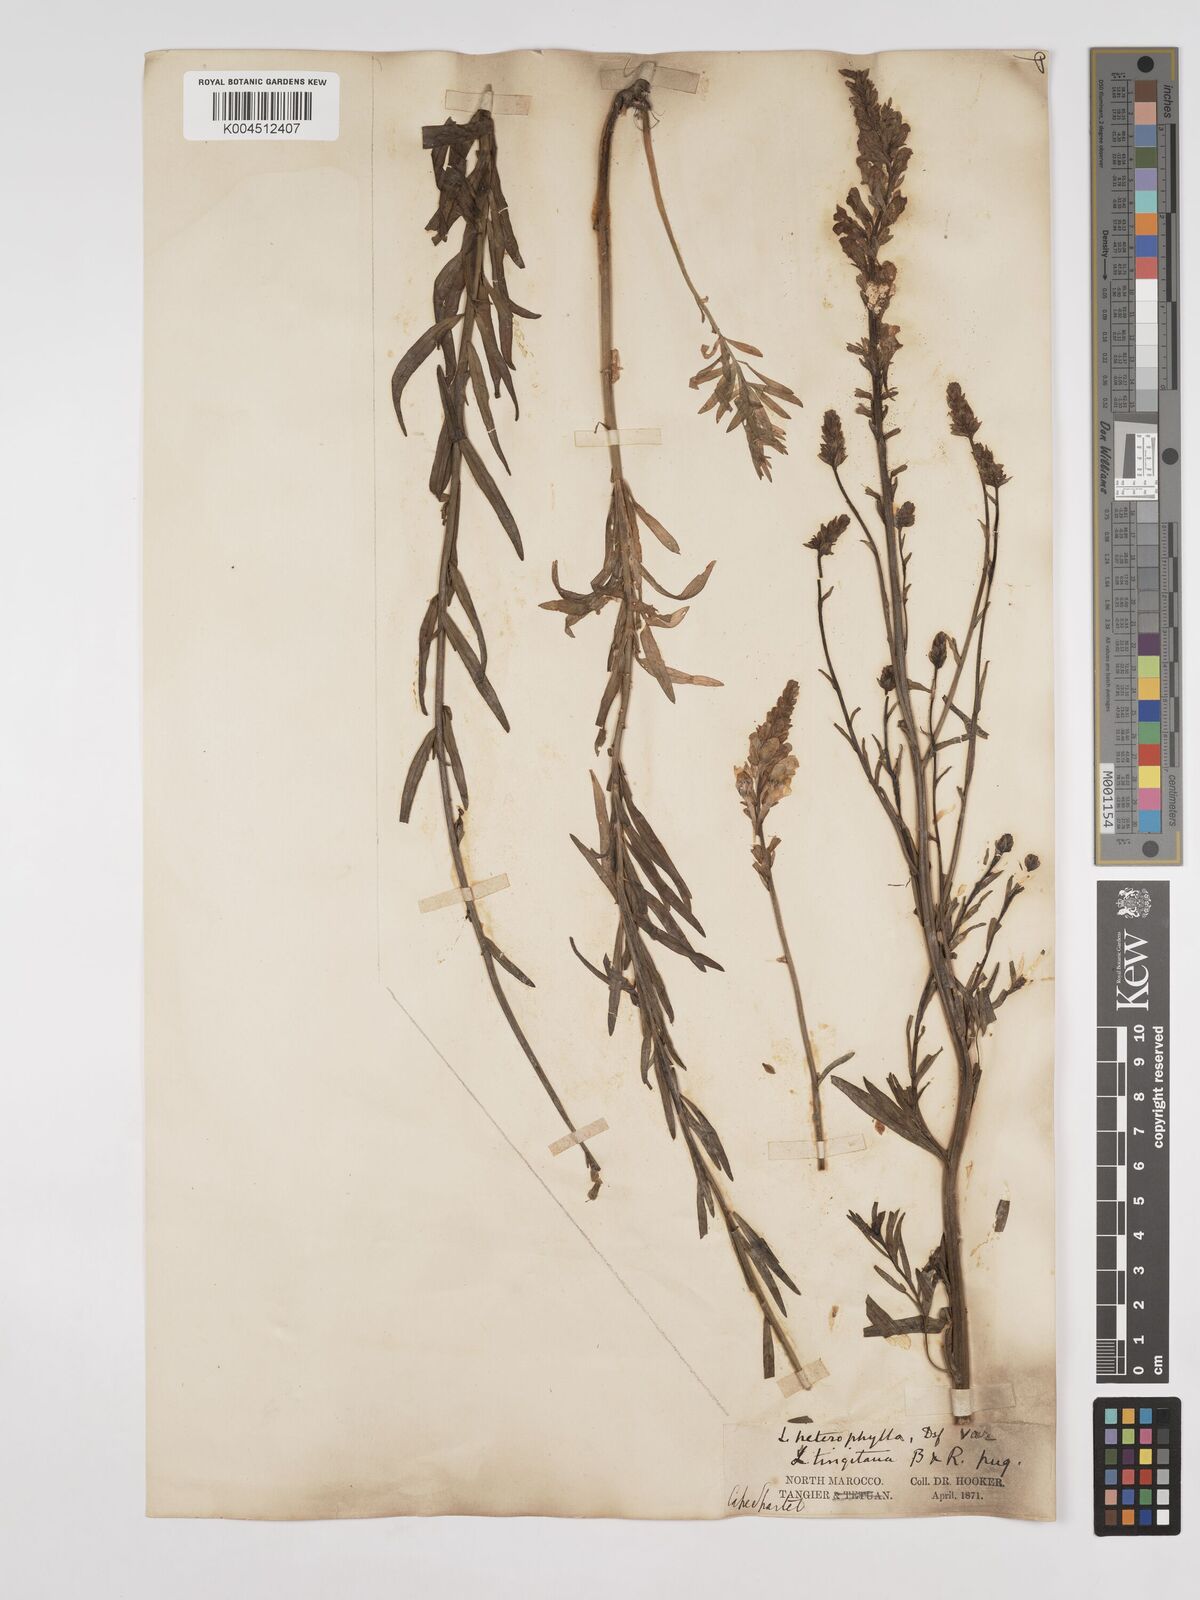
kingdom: Plantae
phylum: Tracheophyta
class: Magnoliopsida
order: Lamiales
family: Plantaginaceae
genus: Linaria
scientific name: Linaria multicaulis
